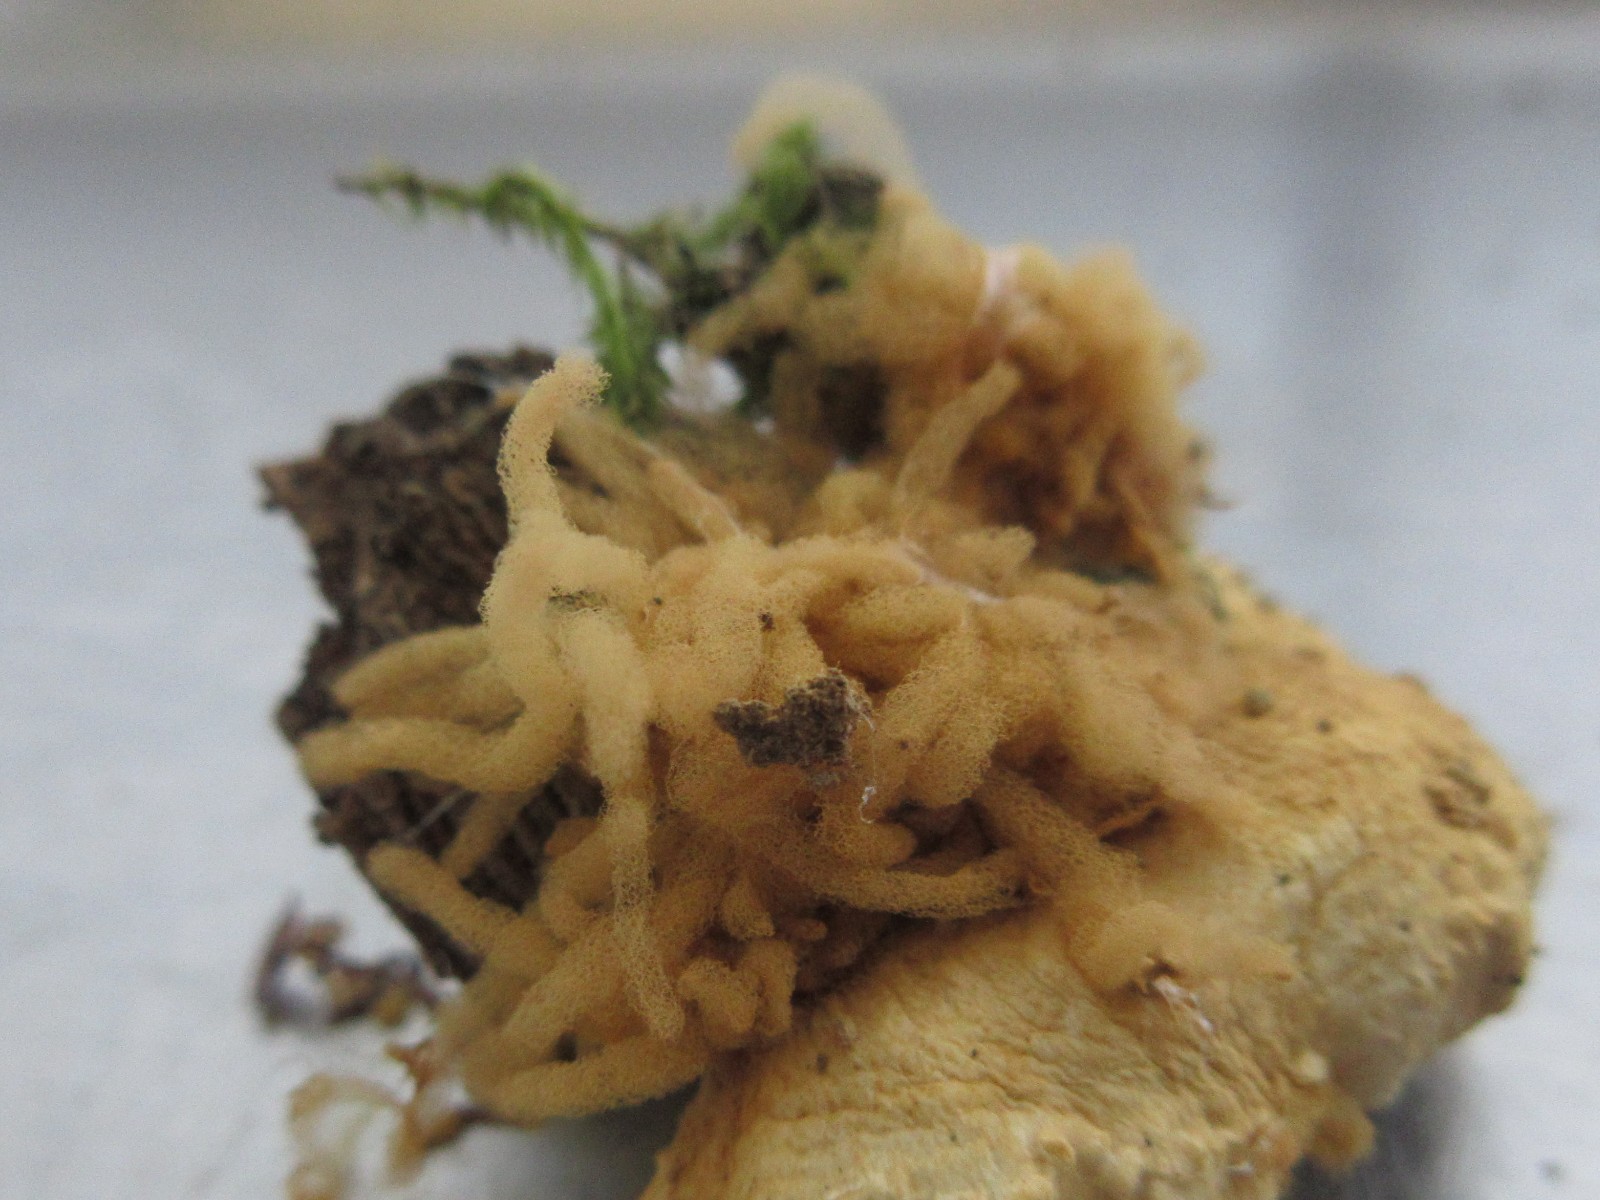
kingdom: Protozoa
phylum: Mycetozoa
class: Myxomycetes
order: Trichiales
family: Arcyriaceae
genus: Arcyria
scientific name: Arcyria obvelata
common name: okkergul skålsvøb
